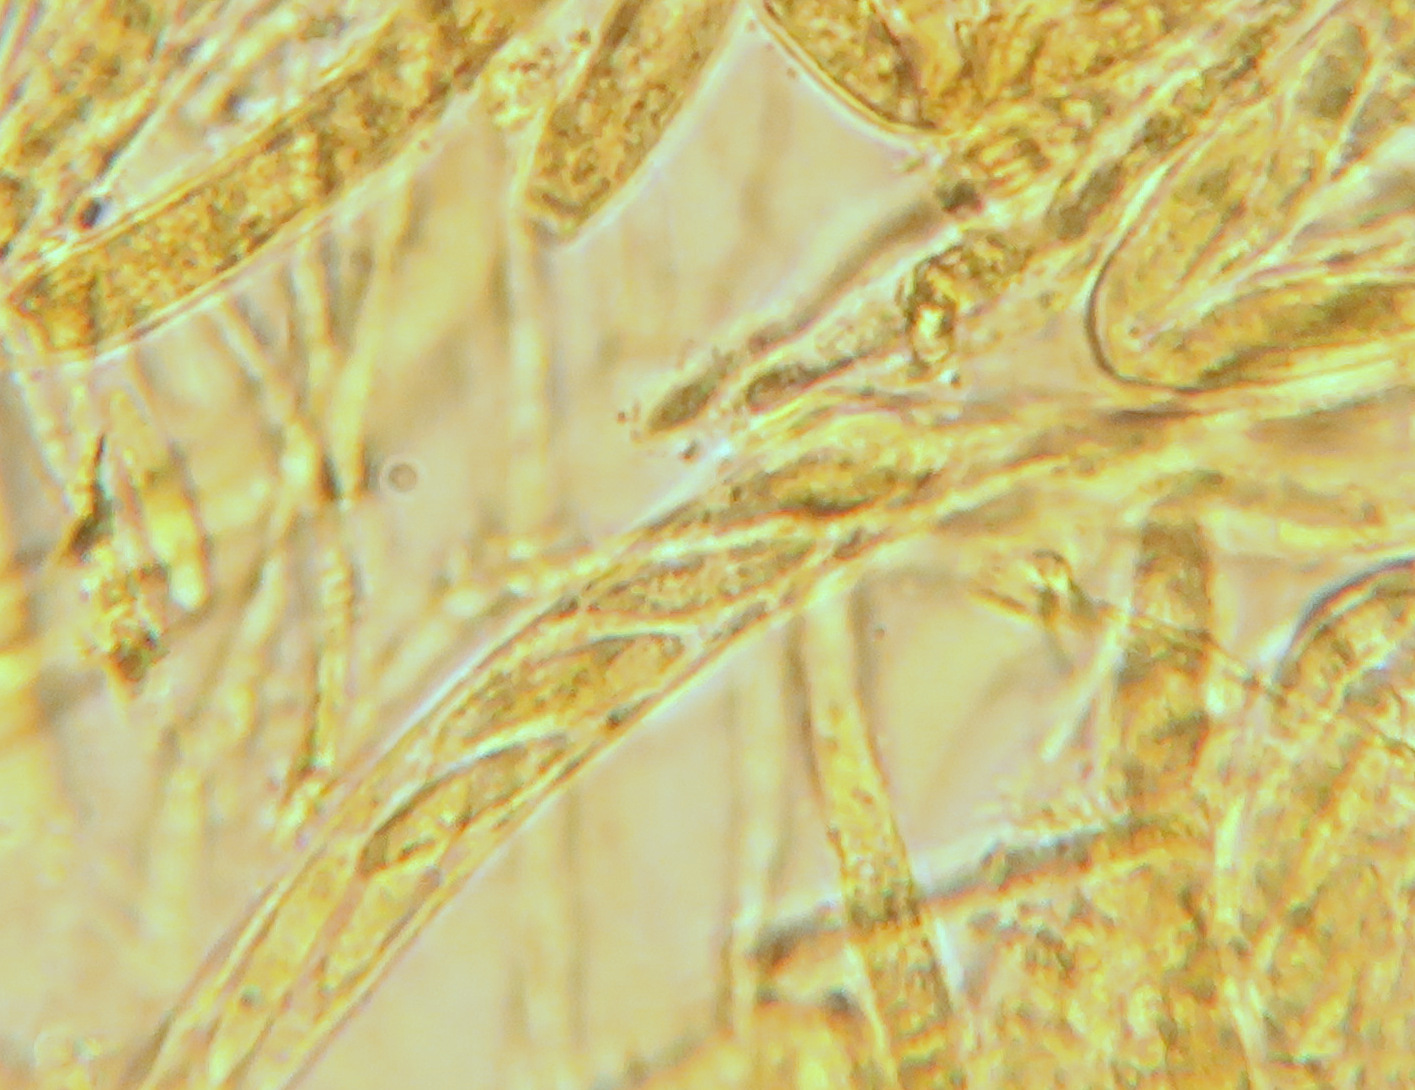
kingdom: Fungi
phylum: Ascomycota
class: Leotiomycetes
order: Helotiales
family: Helotiaceae
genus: Hymenoscyphus
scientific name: Hymenoscyphus lutescens
